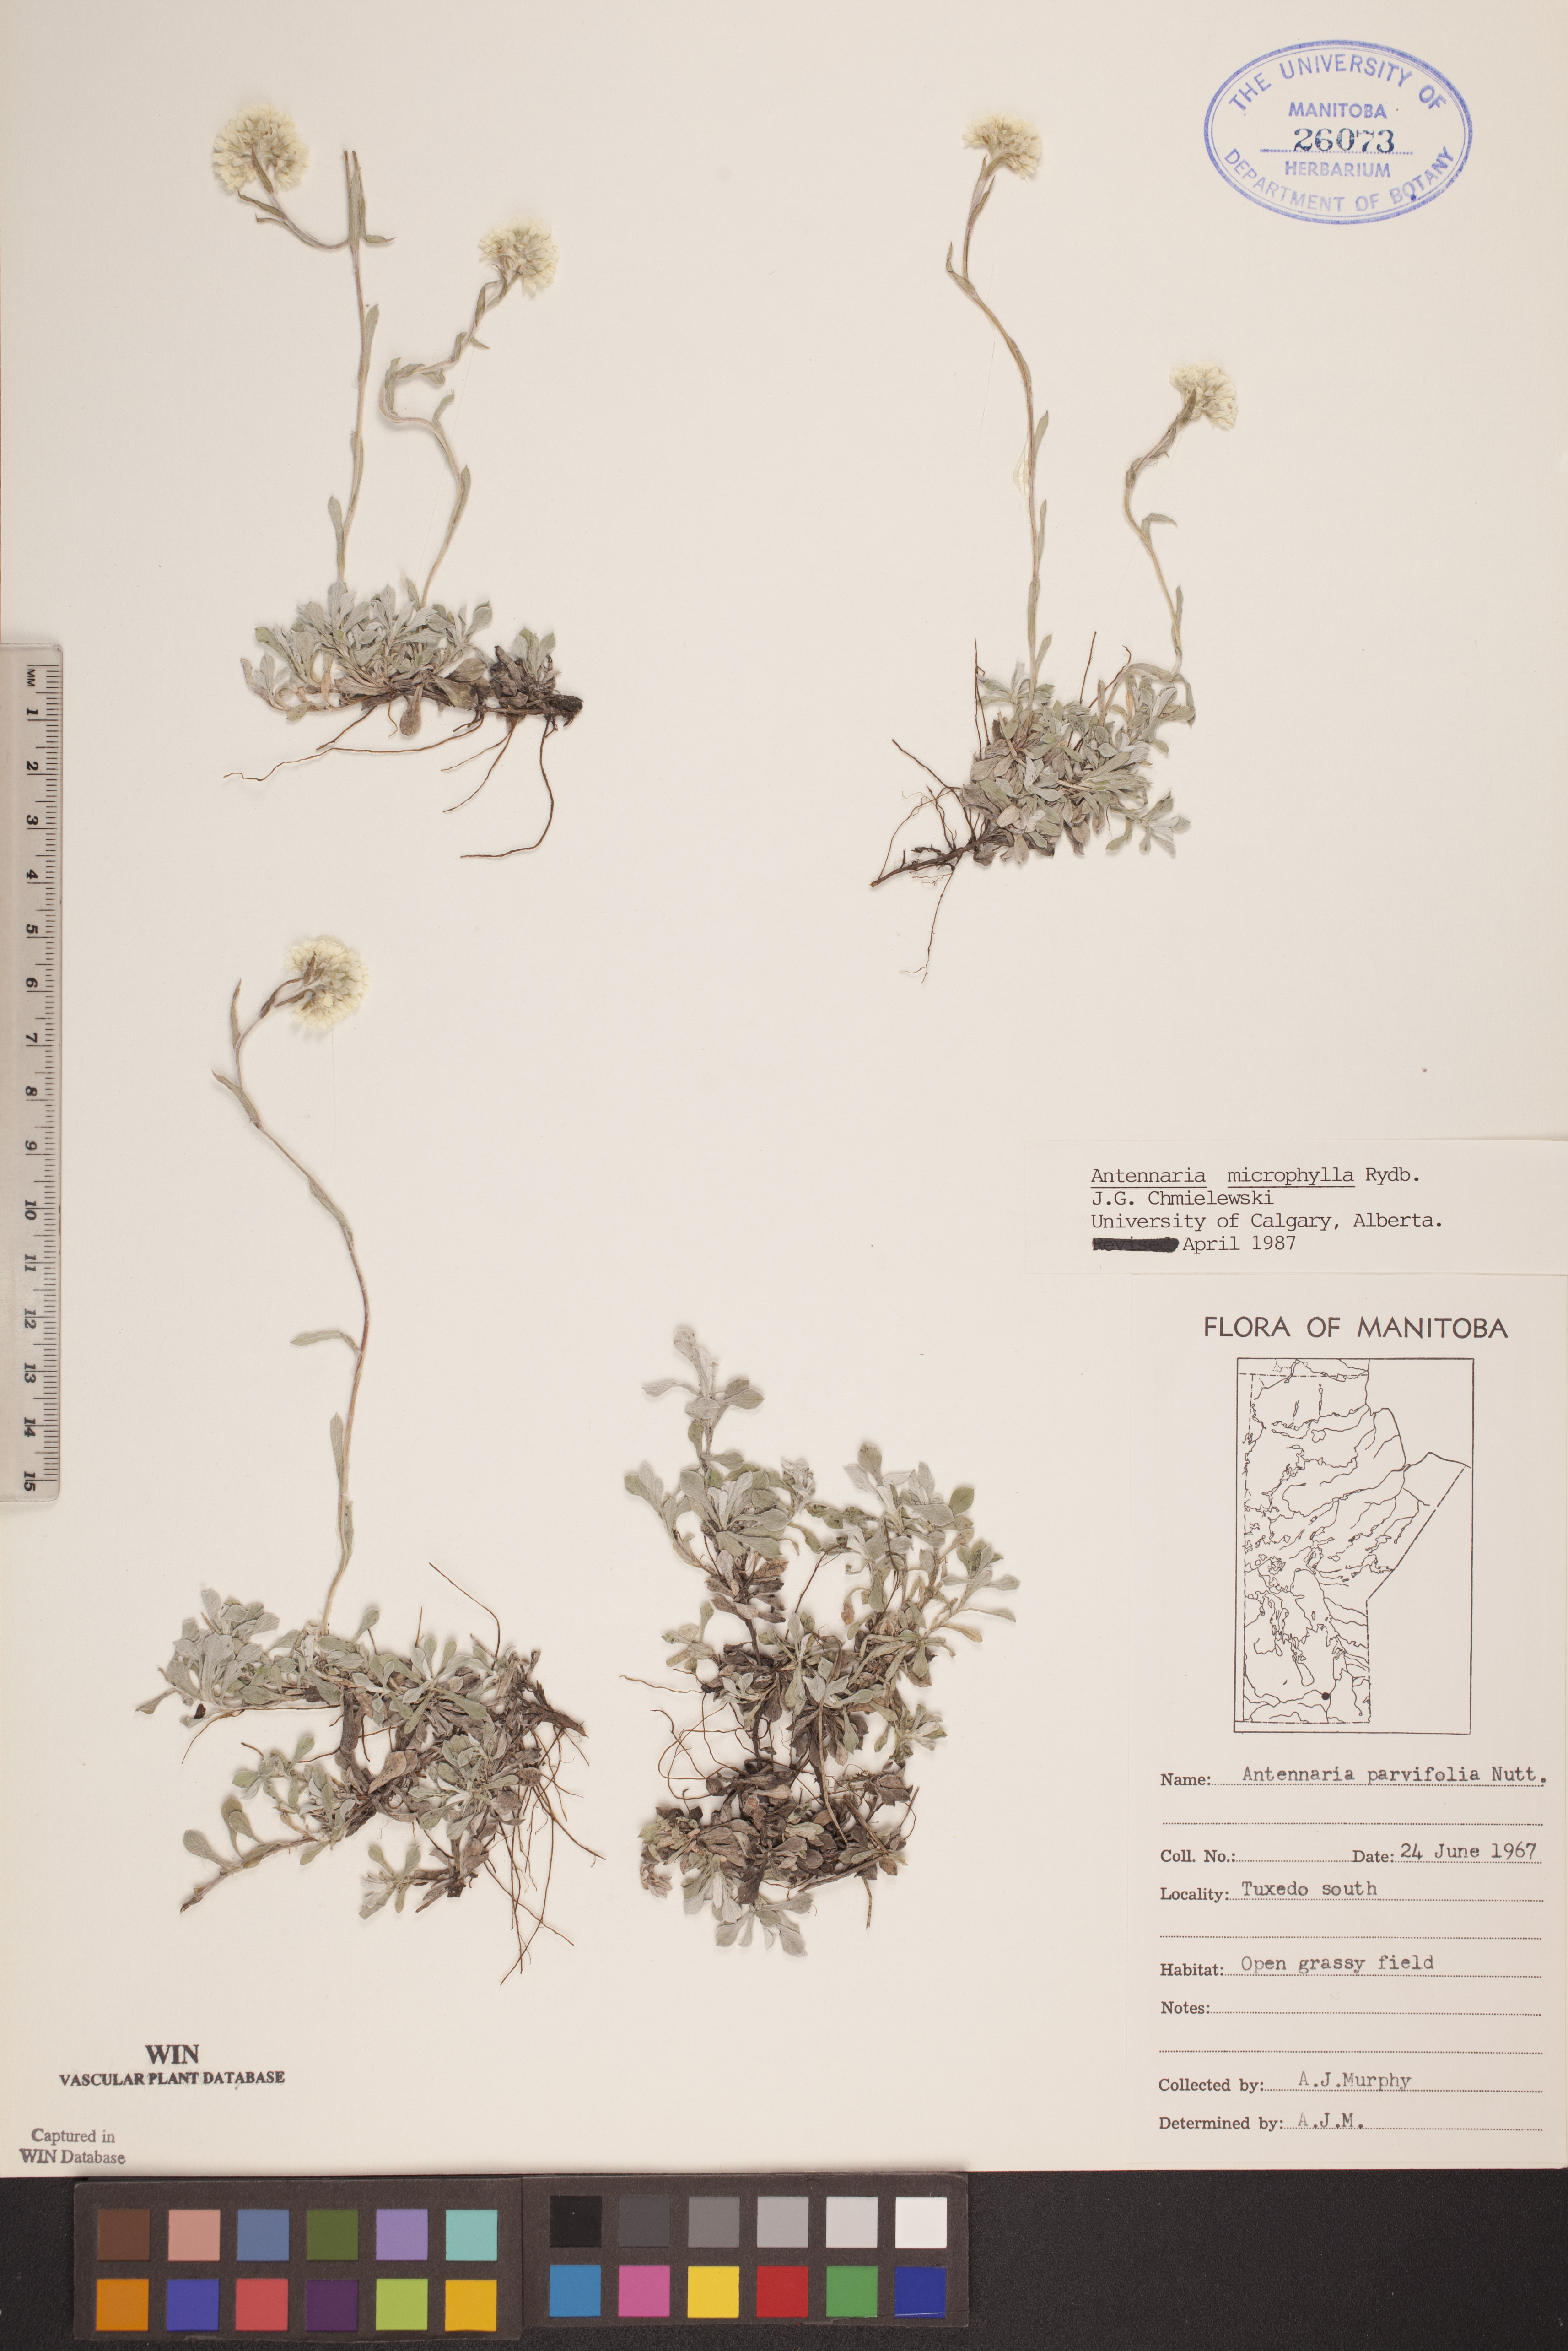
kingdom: Plantae
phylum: Tracheophyta
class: Magnoliopsida
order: Asterales
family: Asteraceae
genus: Antennaria
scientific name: Antennaria microphylla
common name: Littleleaf pussytoes
